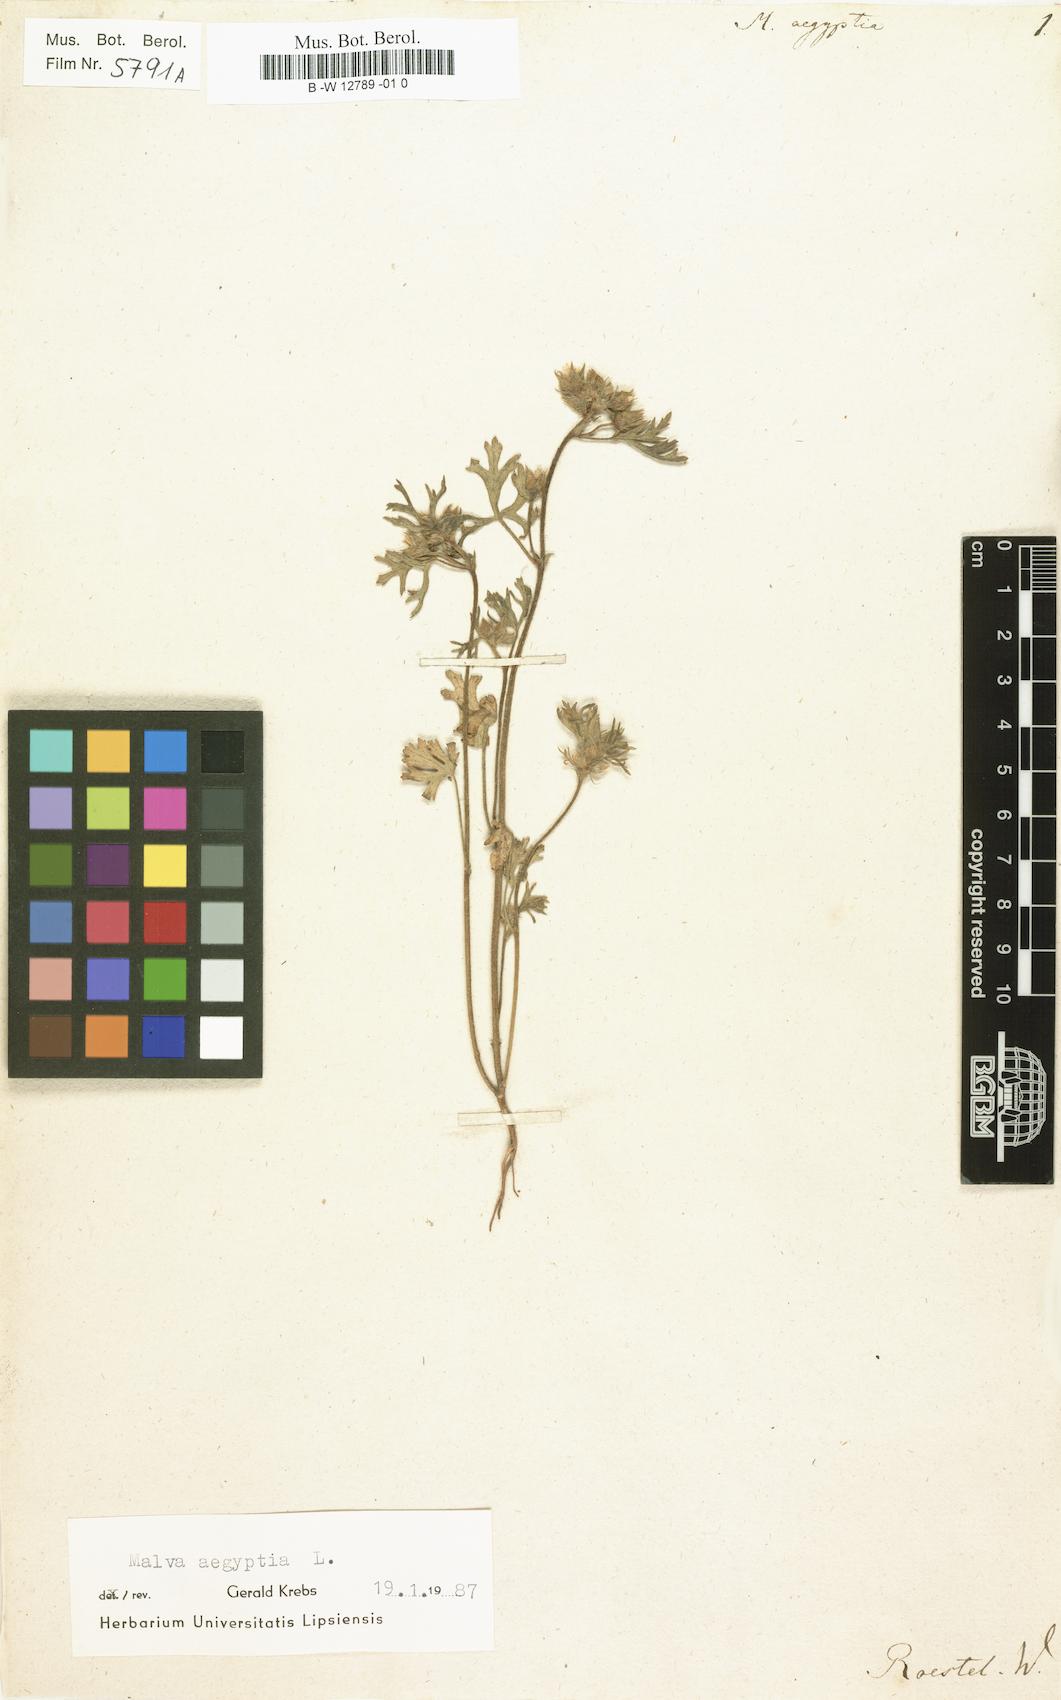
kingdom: Plantae
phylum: Tracheophyta
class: Magnoliopsida
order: Malvales
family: Malvaceae
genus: Malva
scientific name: Malva aegyptia
